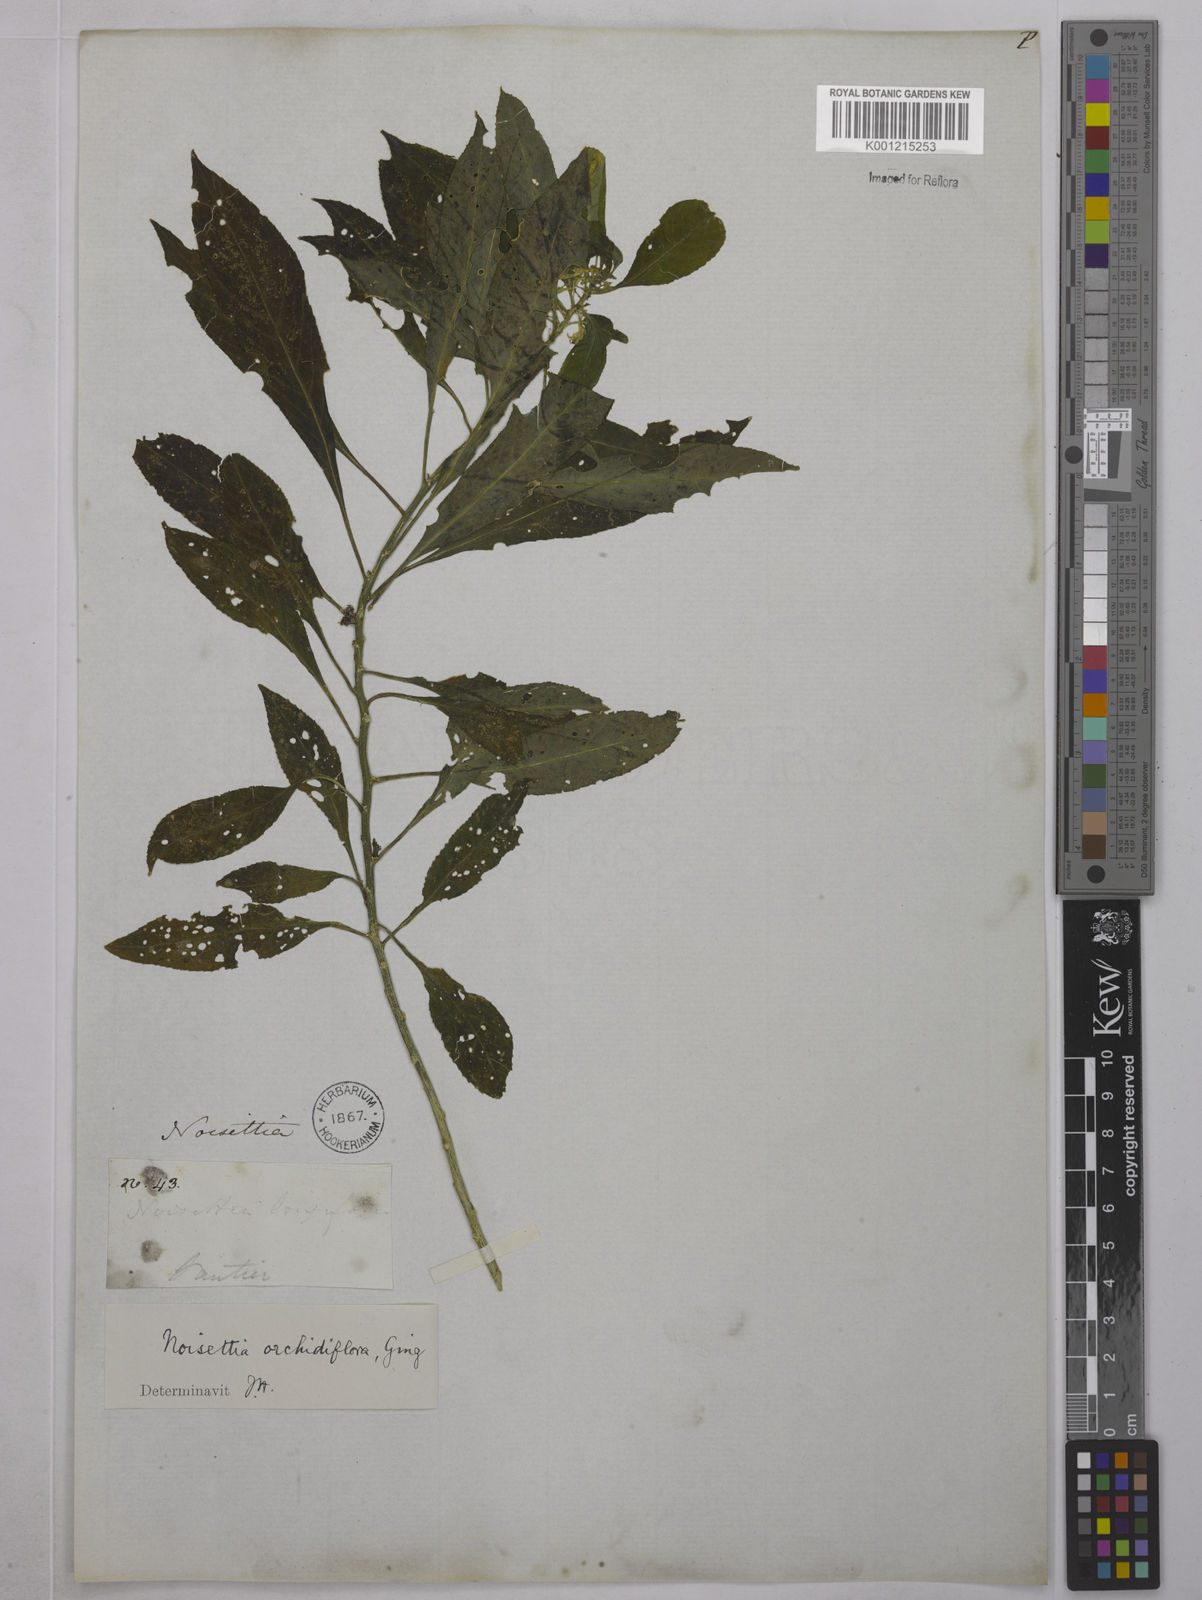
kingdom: Plantae
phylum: Tracheophyta
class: Magnoliopsida
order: Malpighiales
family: Violaceae
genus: Noisettia
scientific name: Noisettia orchidiflora
